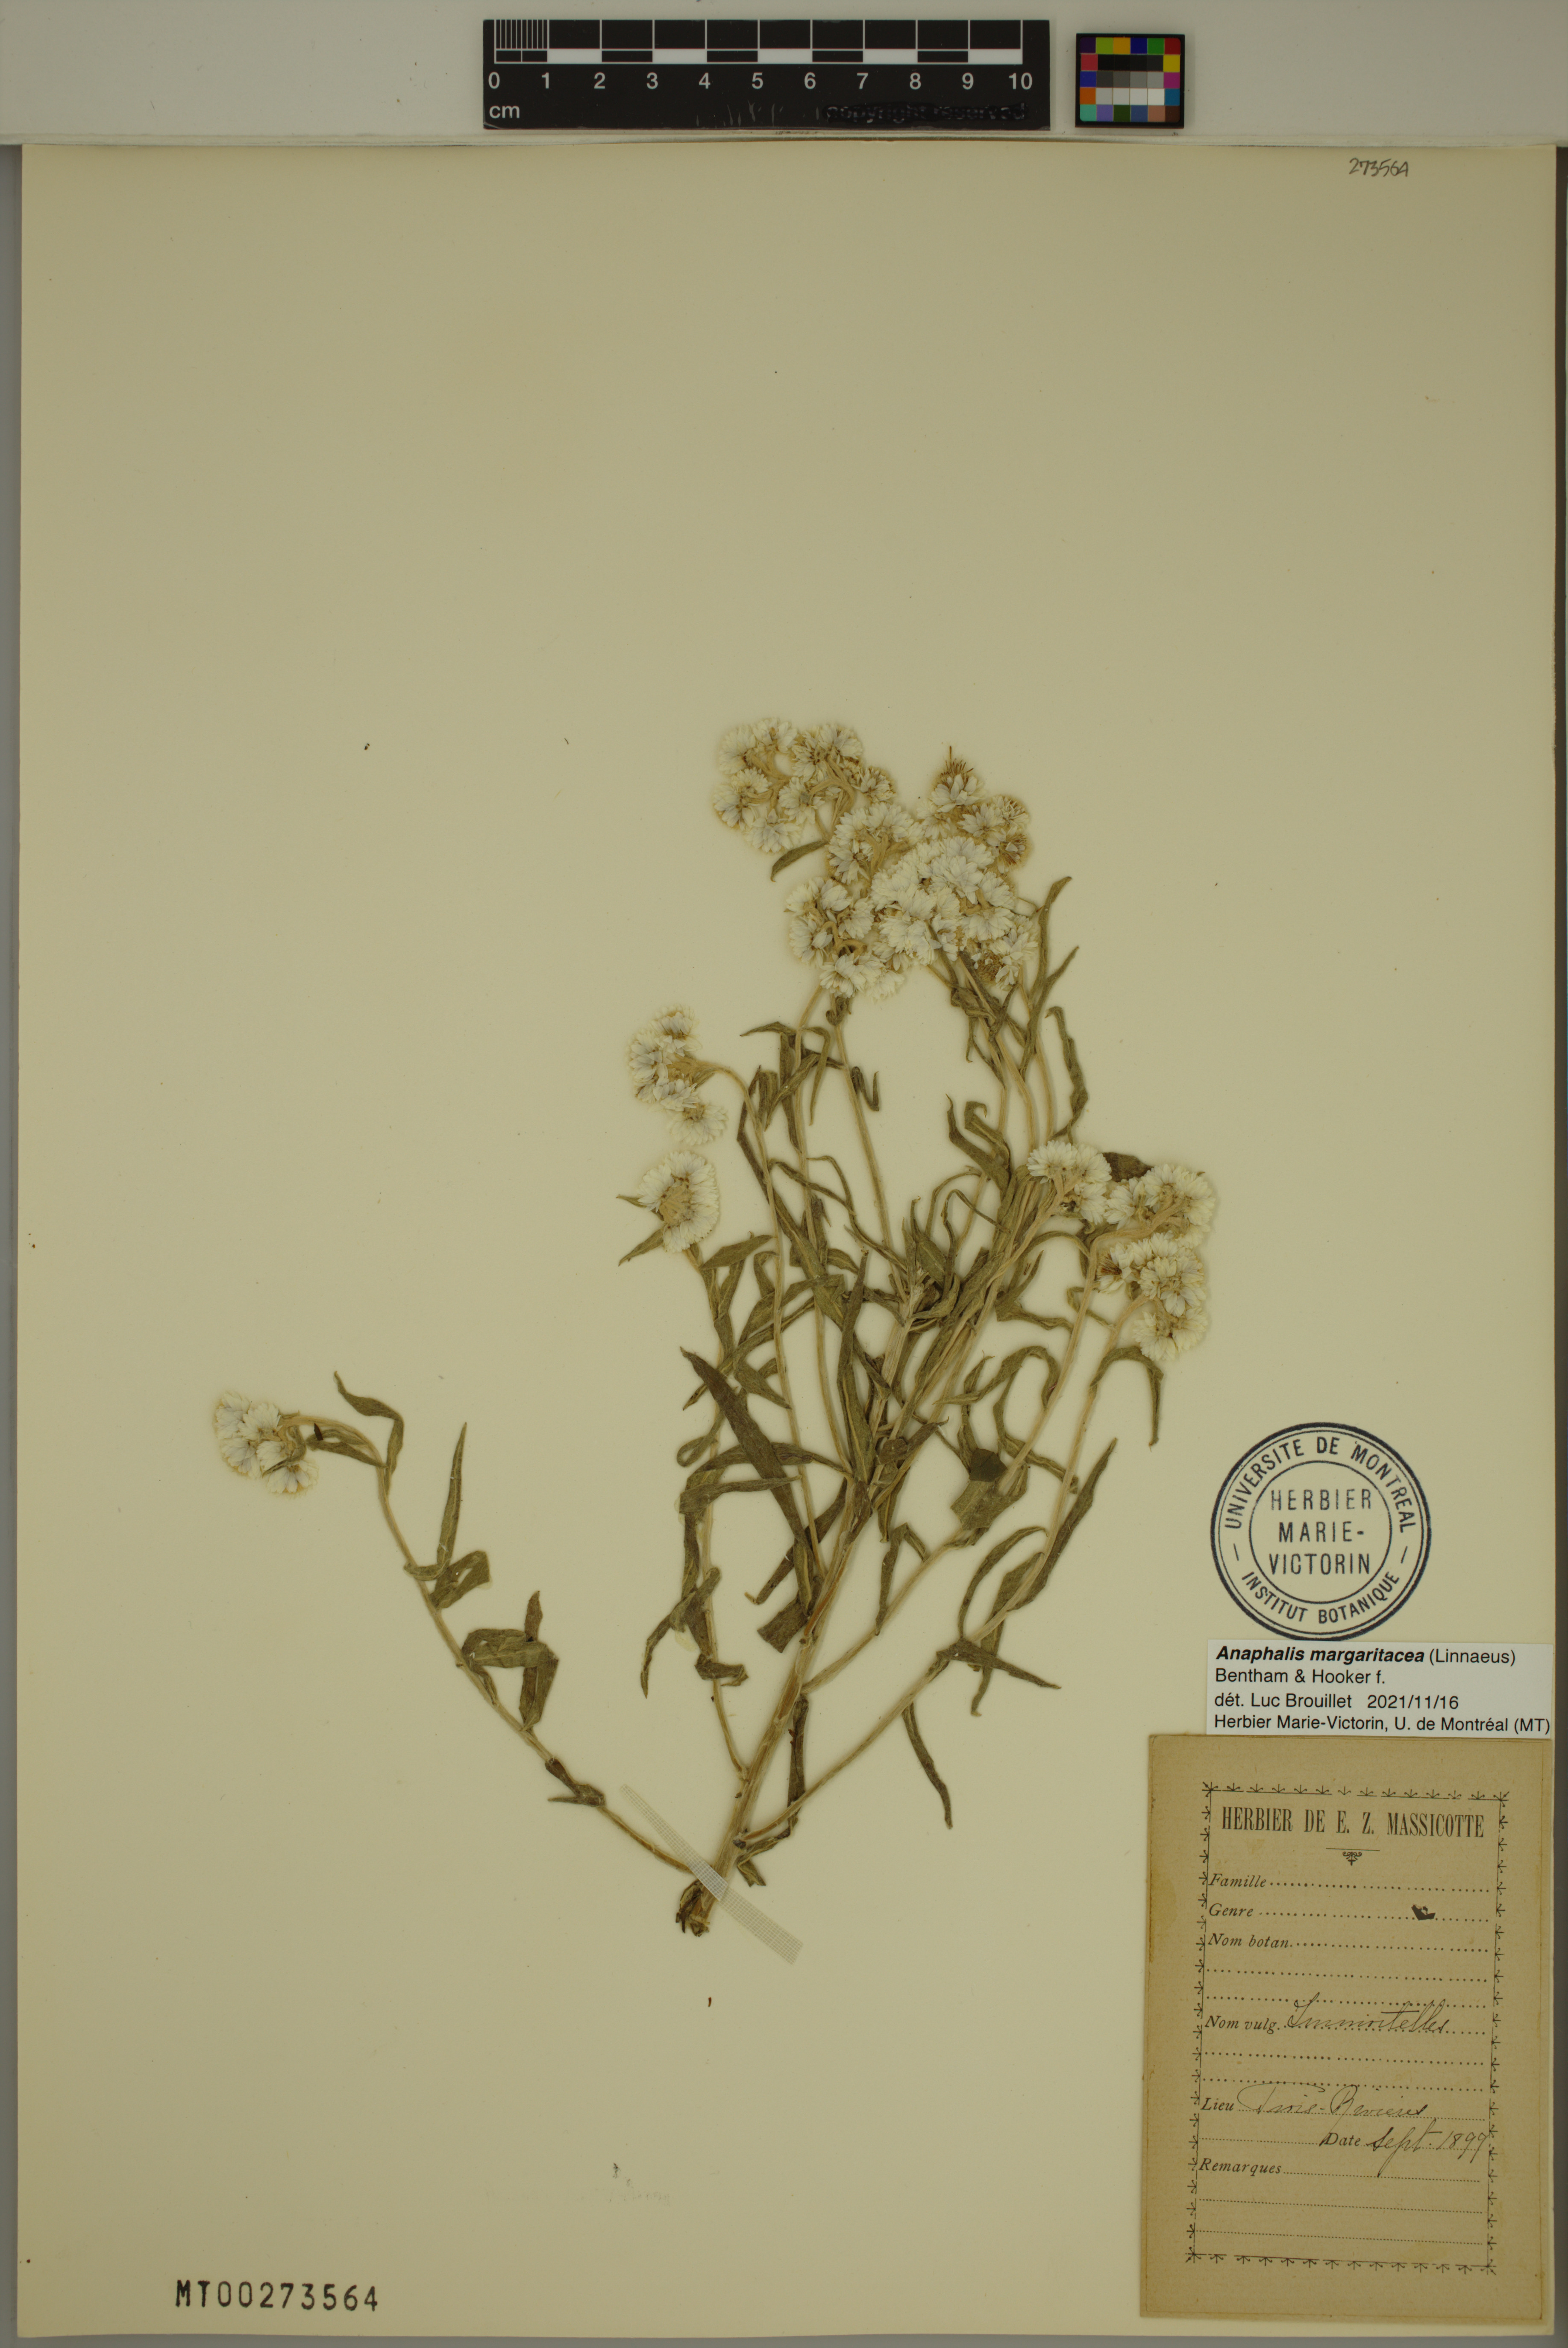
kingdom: Plantae
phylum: Tracheophyta
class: Magnoliopsida
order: Asterales
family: Asteraceae
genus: Anaphalis
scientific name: Anaphalis margaritacea
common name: Pearly everlasting
